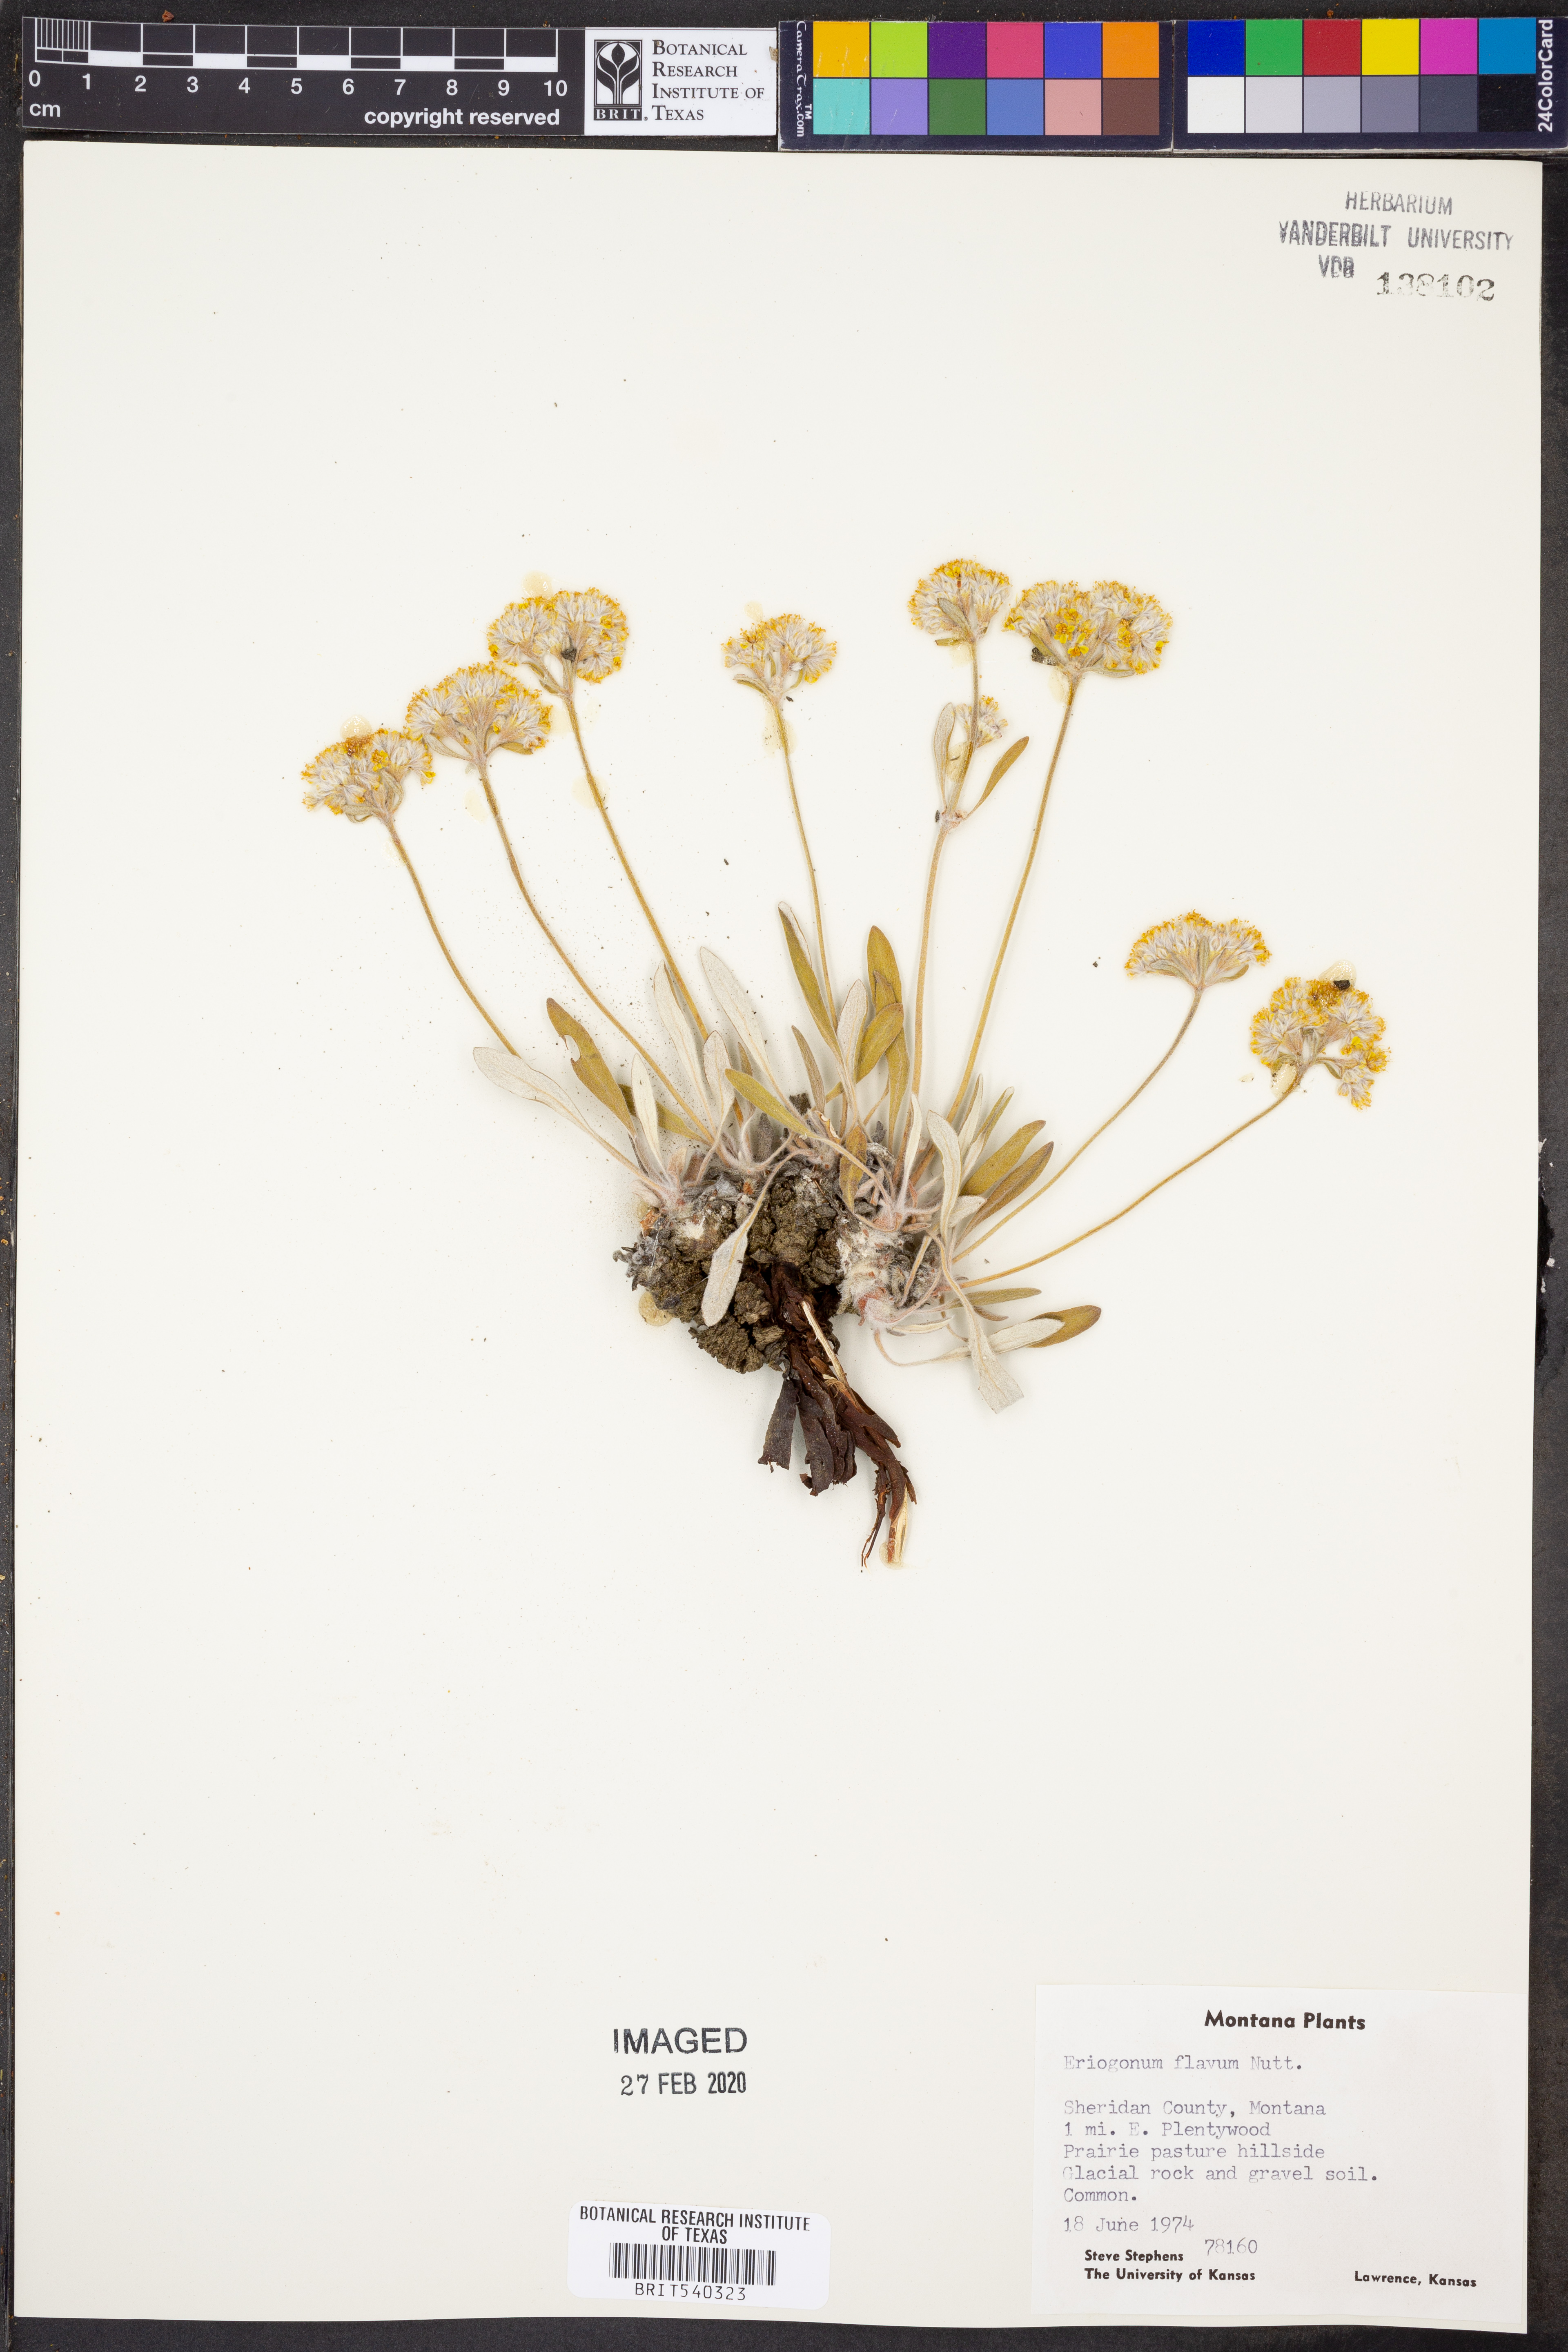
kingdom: Plantae
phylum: Tracheophyta
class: Magnoliopsida
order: Caryophyllales
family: Polygonaceae
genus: Eriogonum
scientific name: Eriogonum flavum
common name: Alpine golden wild buckwheat
